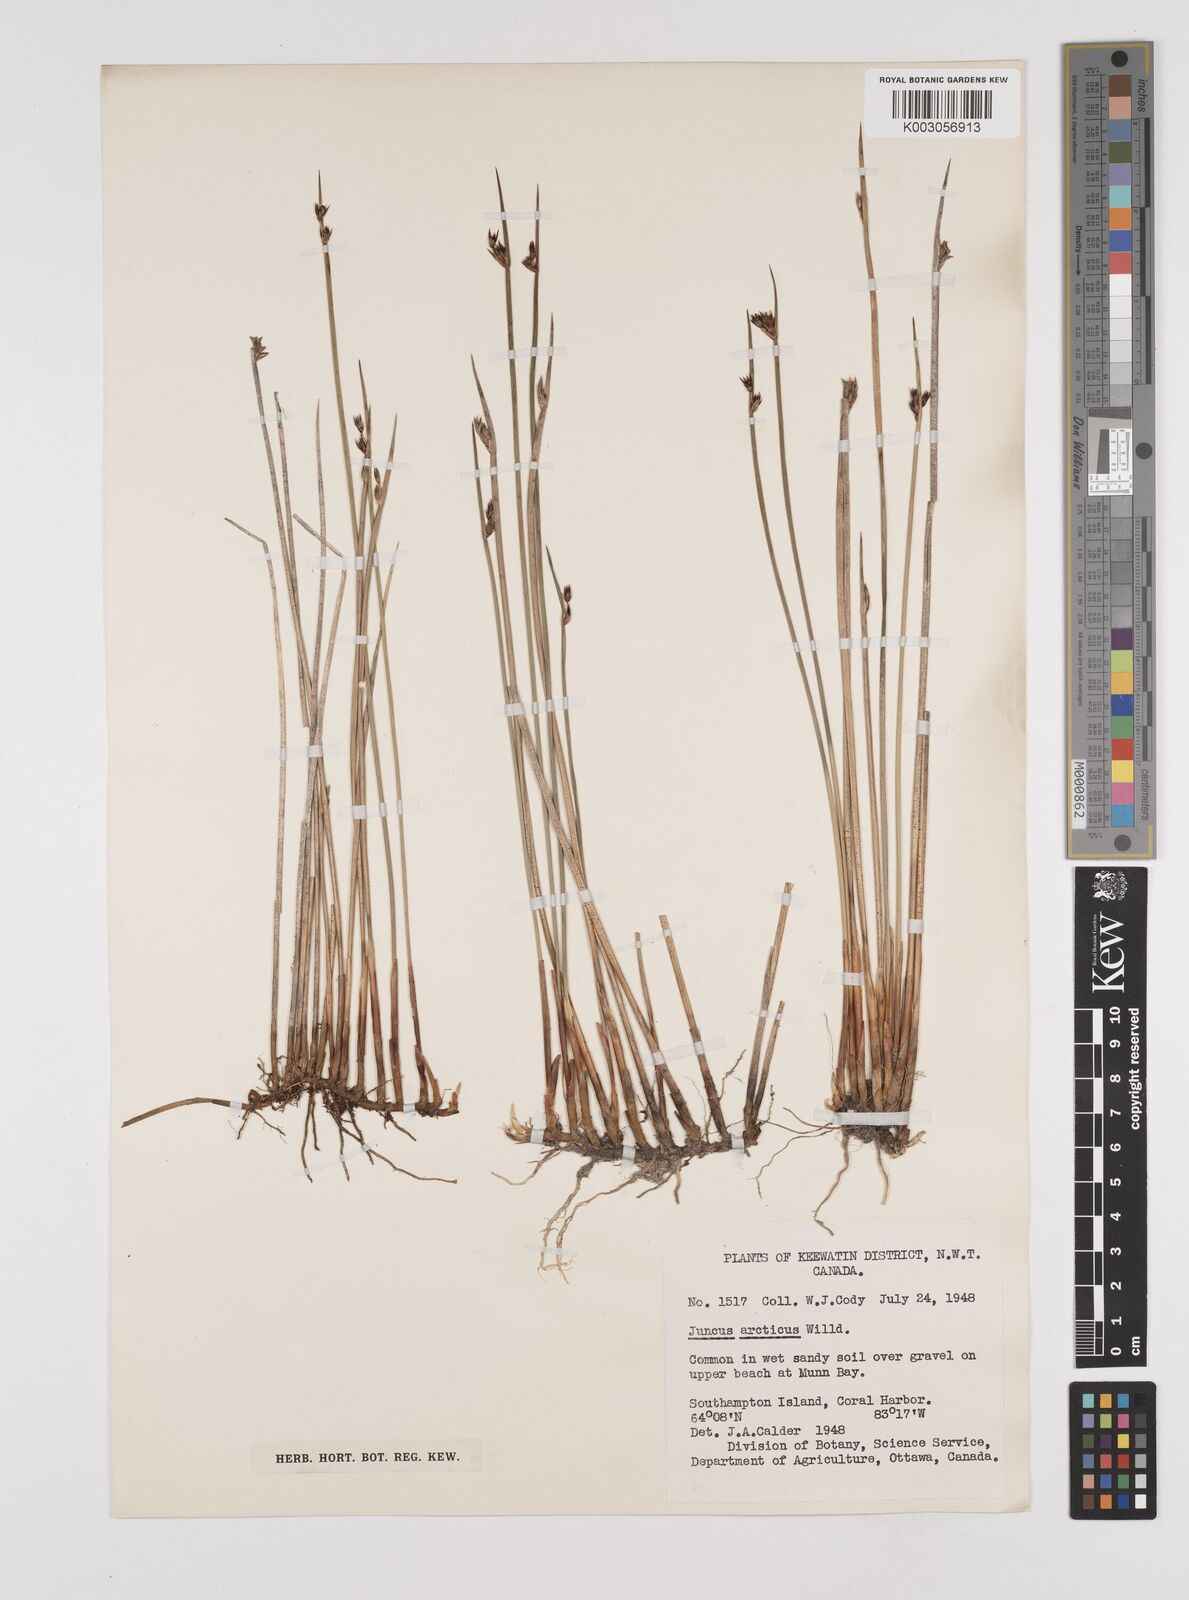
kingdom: Plantae
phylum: Tracheophyta
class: Liliopsida
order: Poales
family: Juncaceae
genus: Juncus
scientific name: Juncus arcticus
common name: Arctic rush
